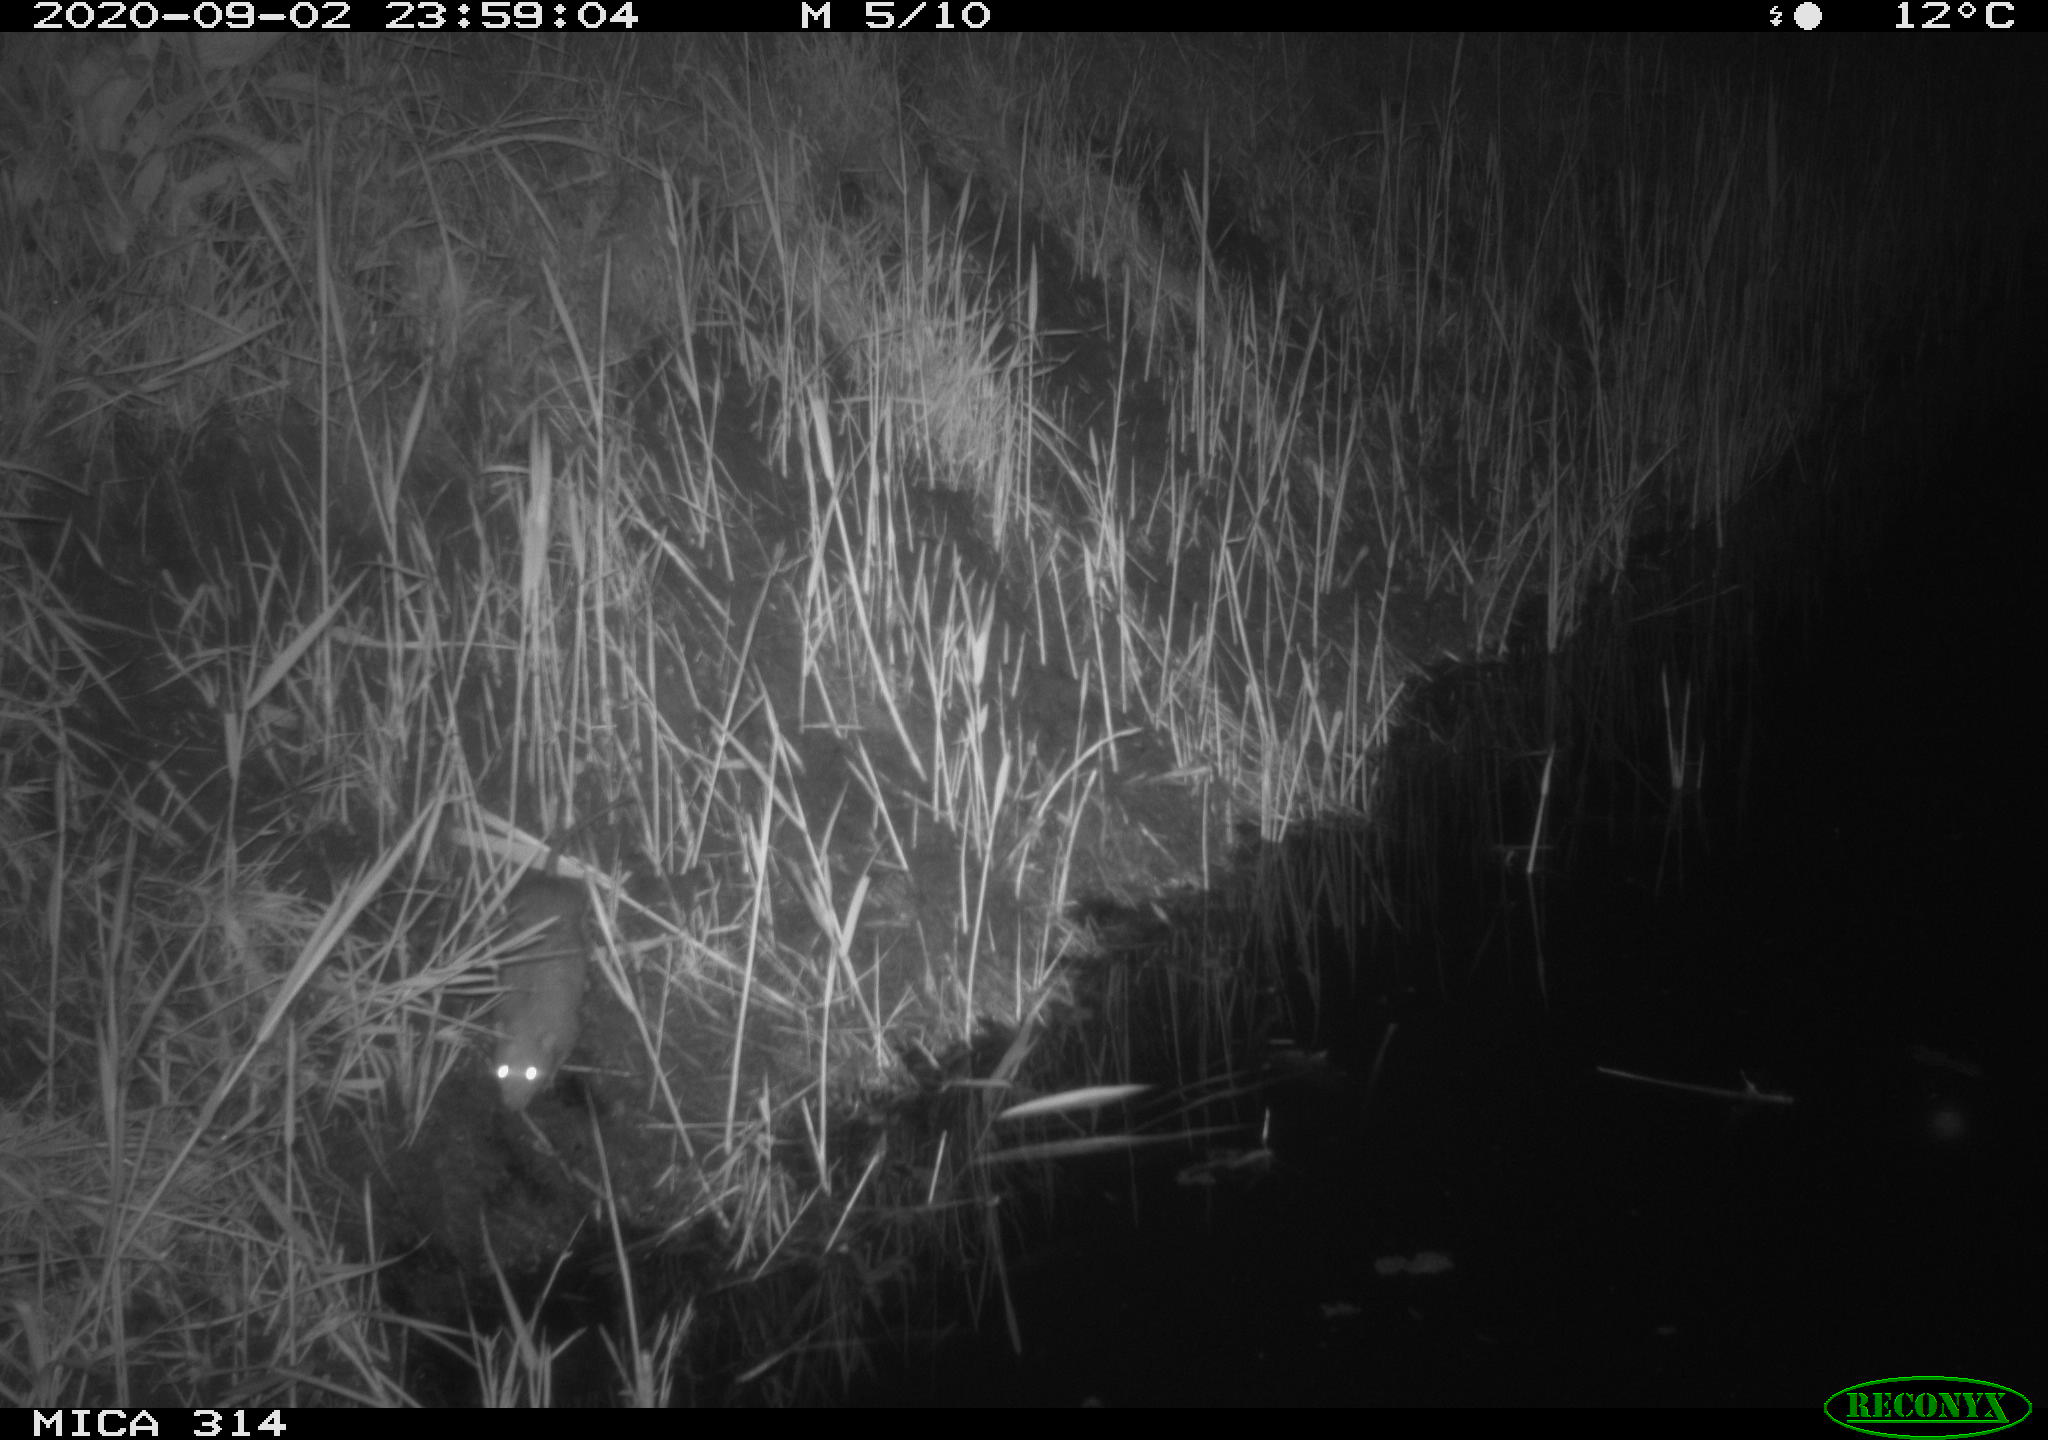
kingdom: Animalia
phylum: Chordata
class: Mammalia
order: Rodentia
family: Muridae
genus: Rattus
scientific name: Rattus norvegicus
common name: Brown rat
